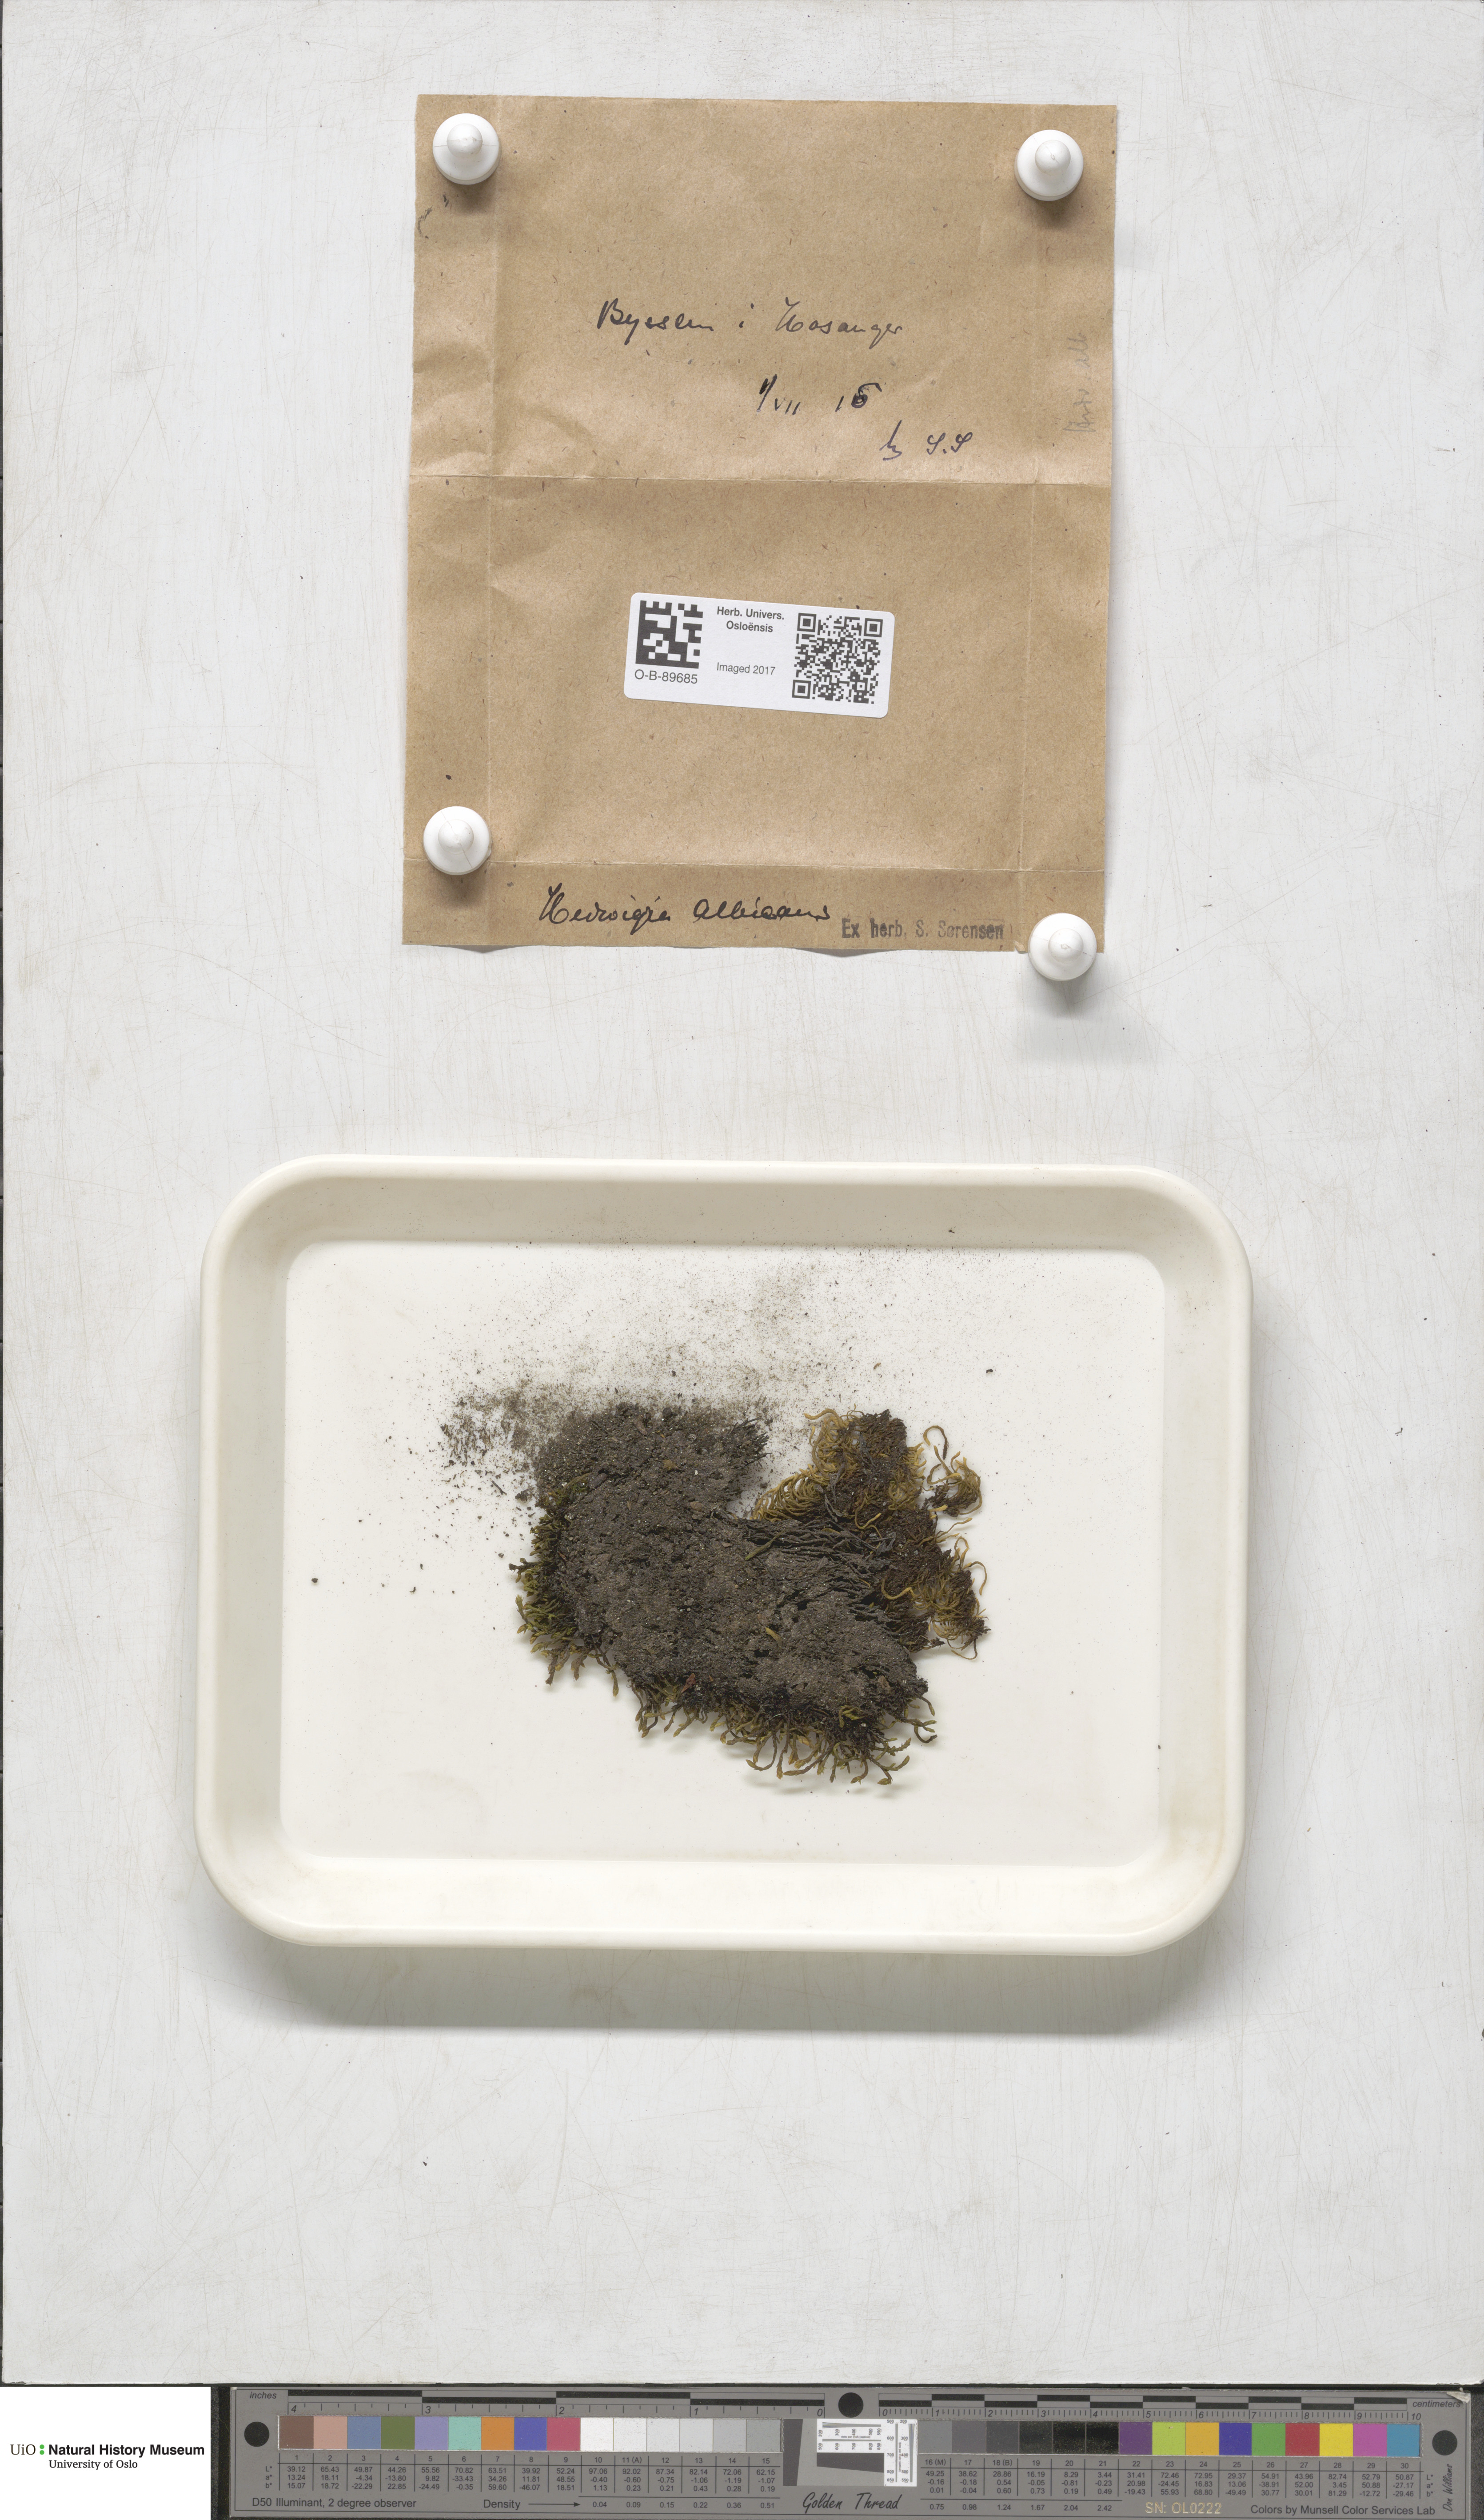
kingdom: Plantae
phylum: Bryophyta
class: Bryopsida
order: Hedwigiales
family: Hedwigiaceae
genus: Hedwigia
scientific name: Hedwigia ciliata
